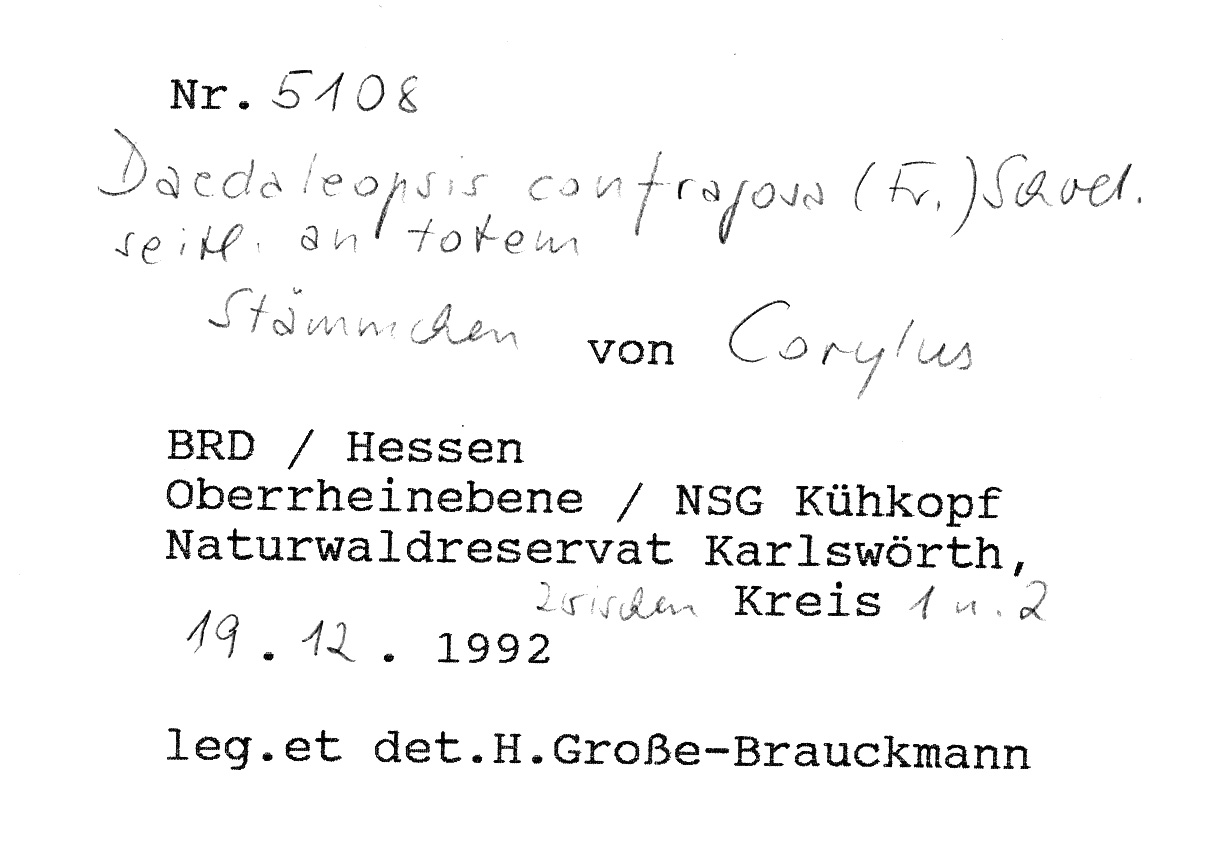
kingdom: Plantae
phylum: Tracheophyta
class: Magnoliopsida
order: Fagales
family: Betulaceae
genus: Corylus
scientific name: Corylus
